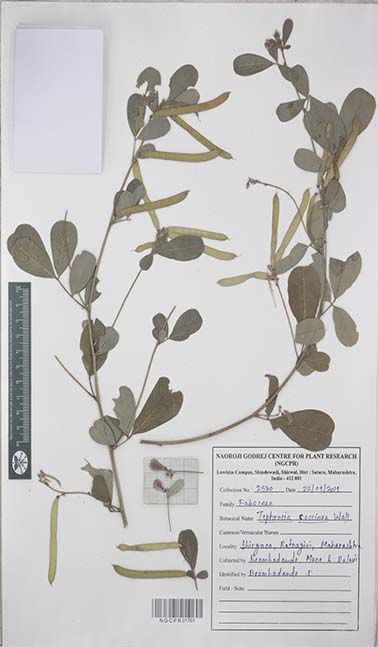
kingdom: Plantae
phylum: Tracheophyta
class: Magnoliopsida
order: Fabales
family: Fabaceae
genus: Tephrosia
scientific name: Tephrosia coccinea
